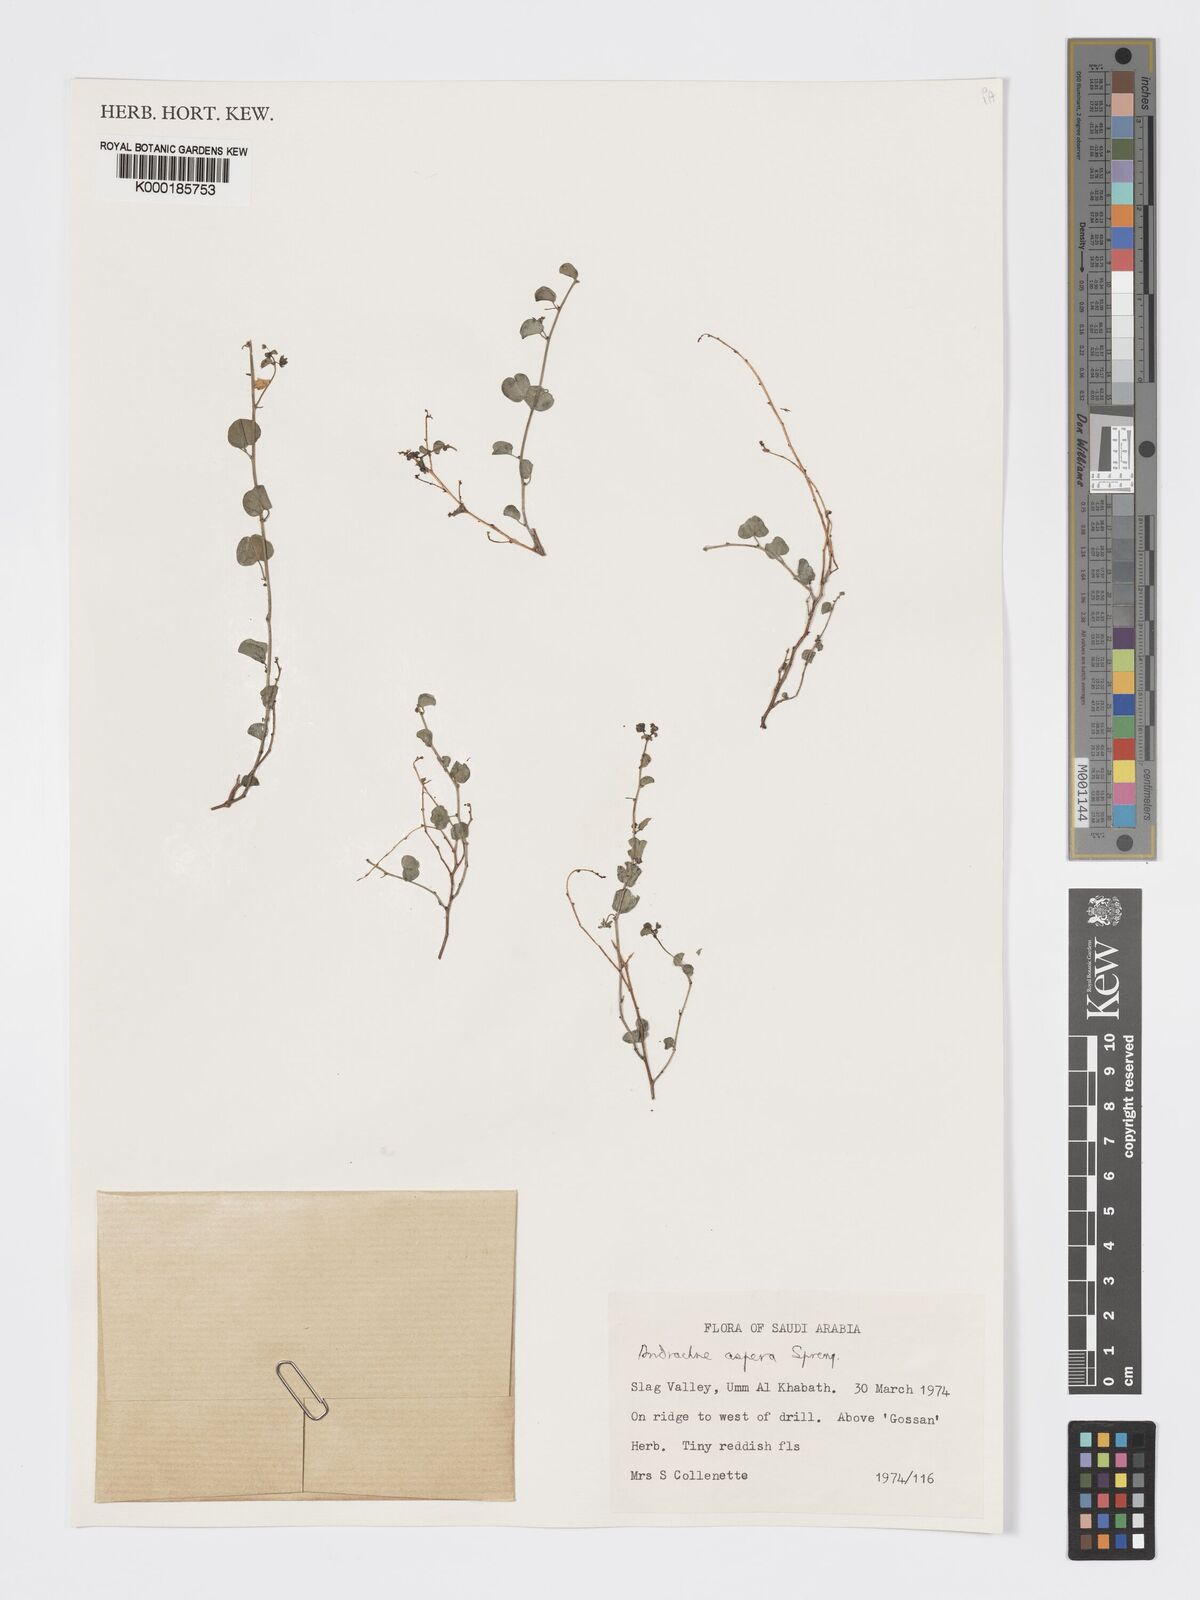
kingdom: Plantae
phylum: Tracheophyta
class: Magnoliopsida
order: Malpighiales
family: Phyllanthaceae
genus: Andrachne
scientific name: Andrachne aspera
